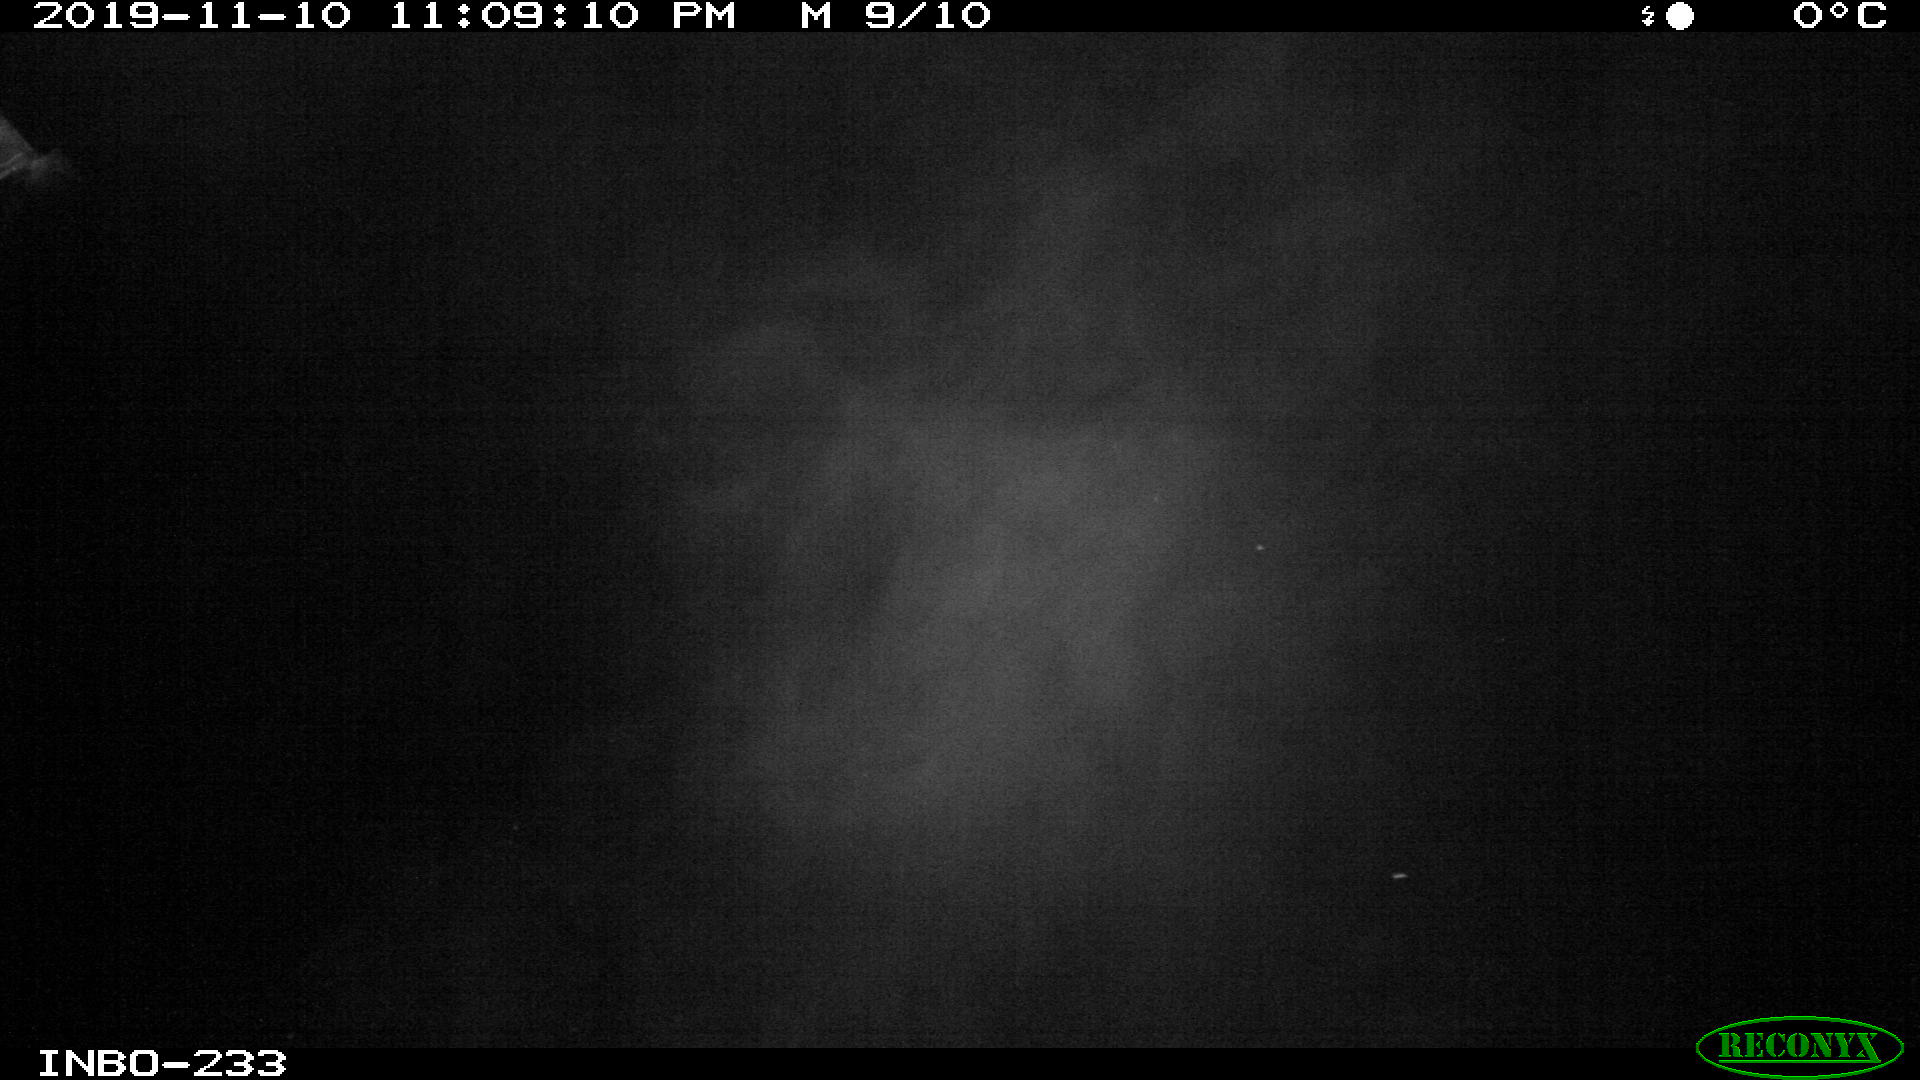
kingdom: Animalia
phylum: Chordata
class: Aves
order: Anseriformes
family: Anatidae
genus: Anas
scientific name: Anas platyrhynchos
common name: Mallard
